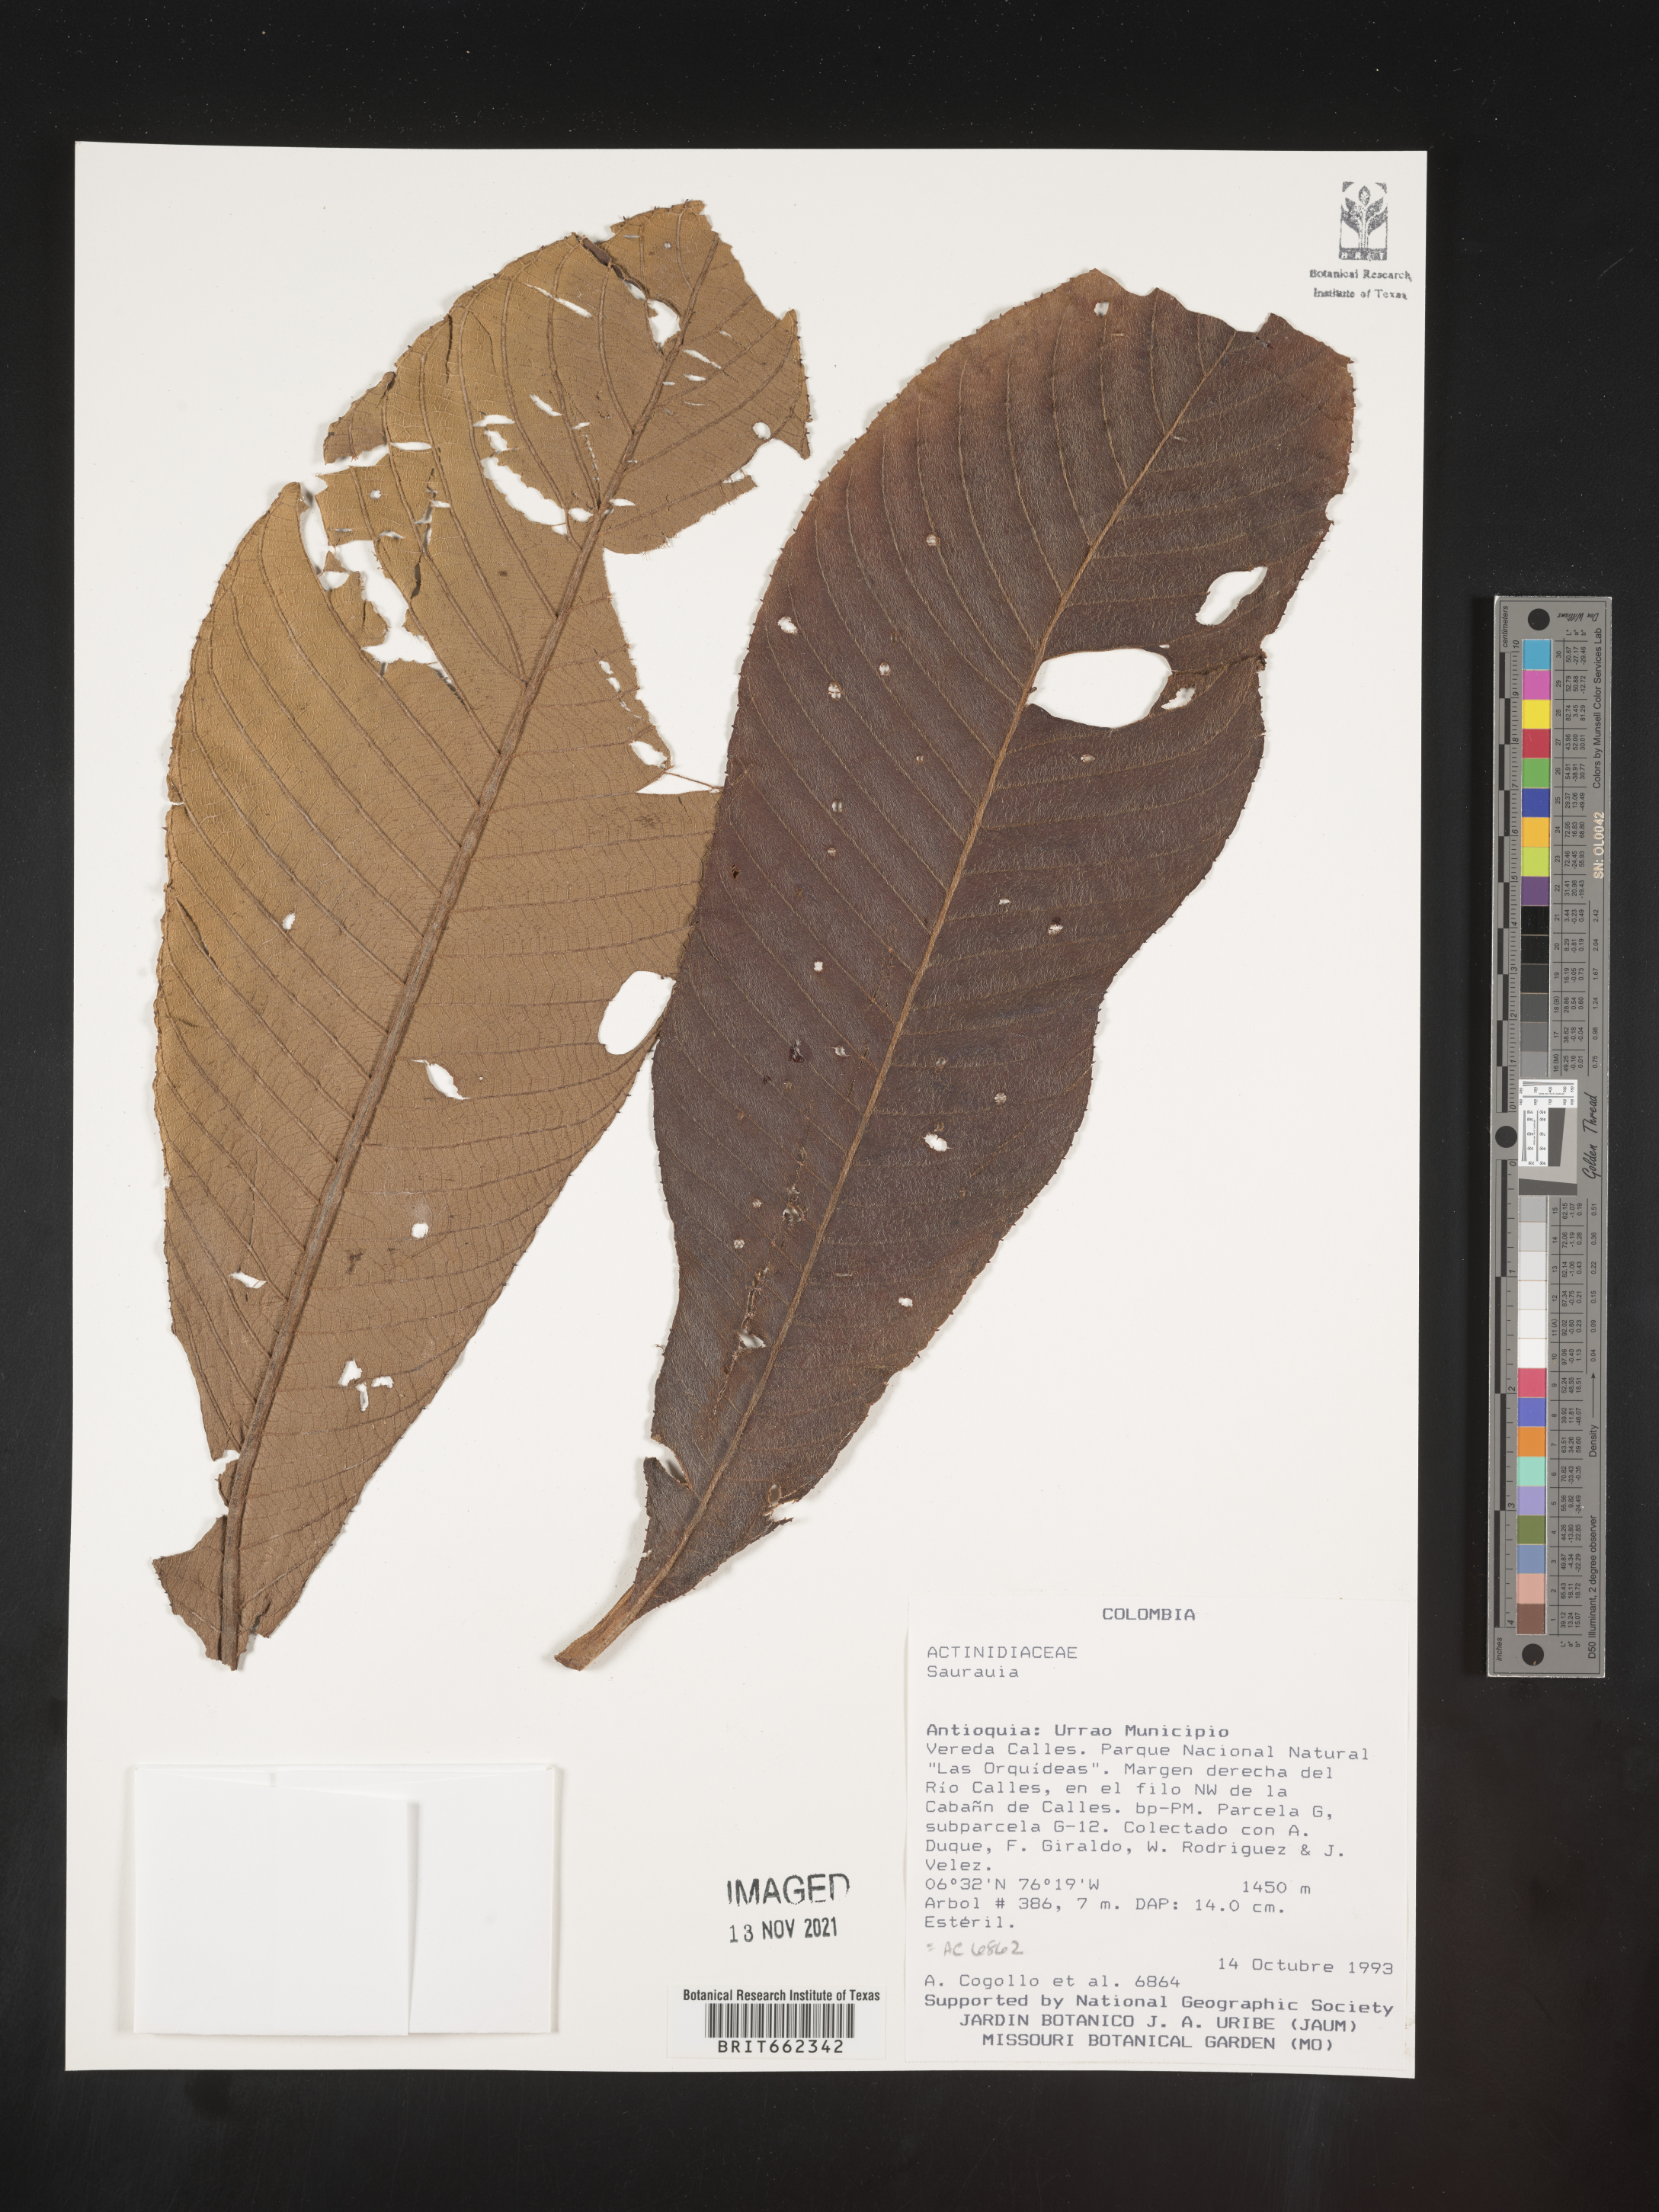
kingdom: Plantae
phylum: Tracheophyta
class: Magnoliopsida
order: Ericales
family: Actinidiaceae
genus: Saurauia
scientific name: Saurauia
